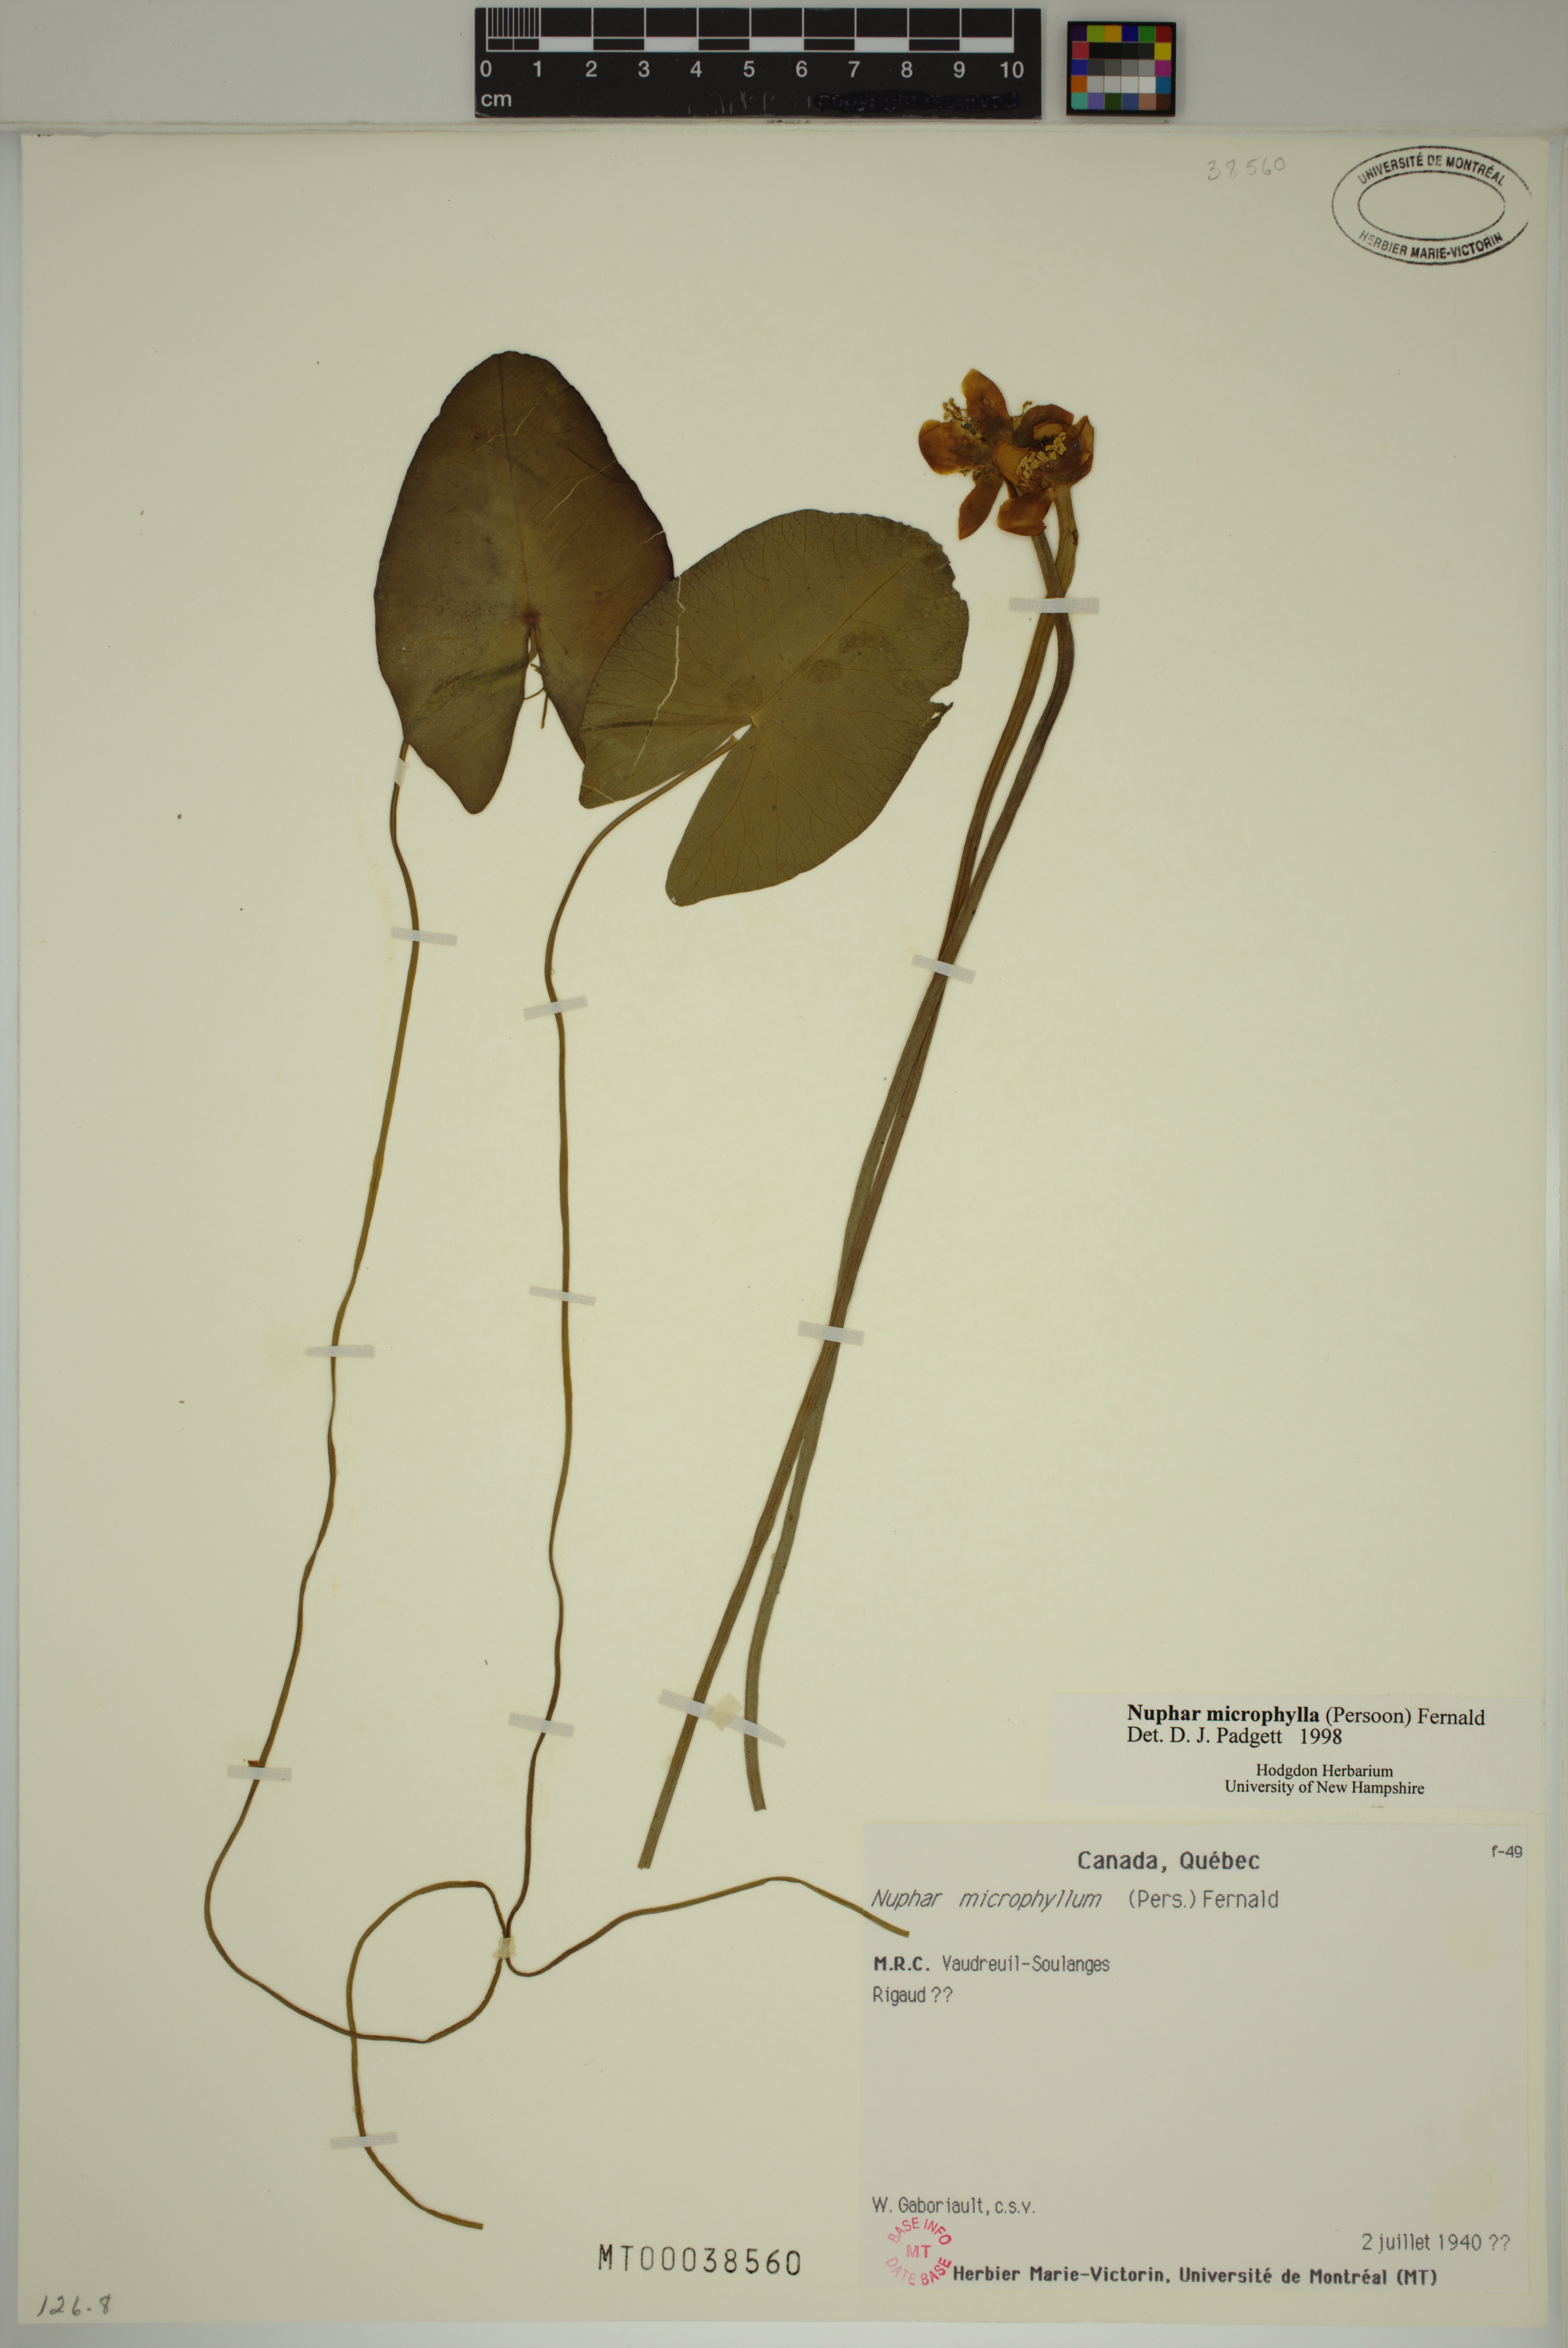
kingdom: Plantae
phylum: Tracheophyta
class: Magnoliopsida
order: Nymphaeales
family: Nymphaeaceae
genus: Nuphar
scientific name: Nuphar microphylla
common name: Small pond-lily
